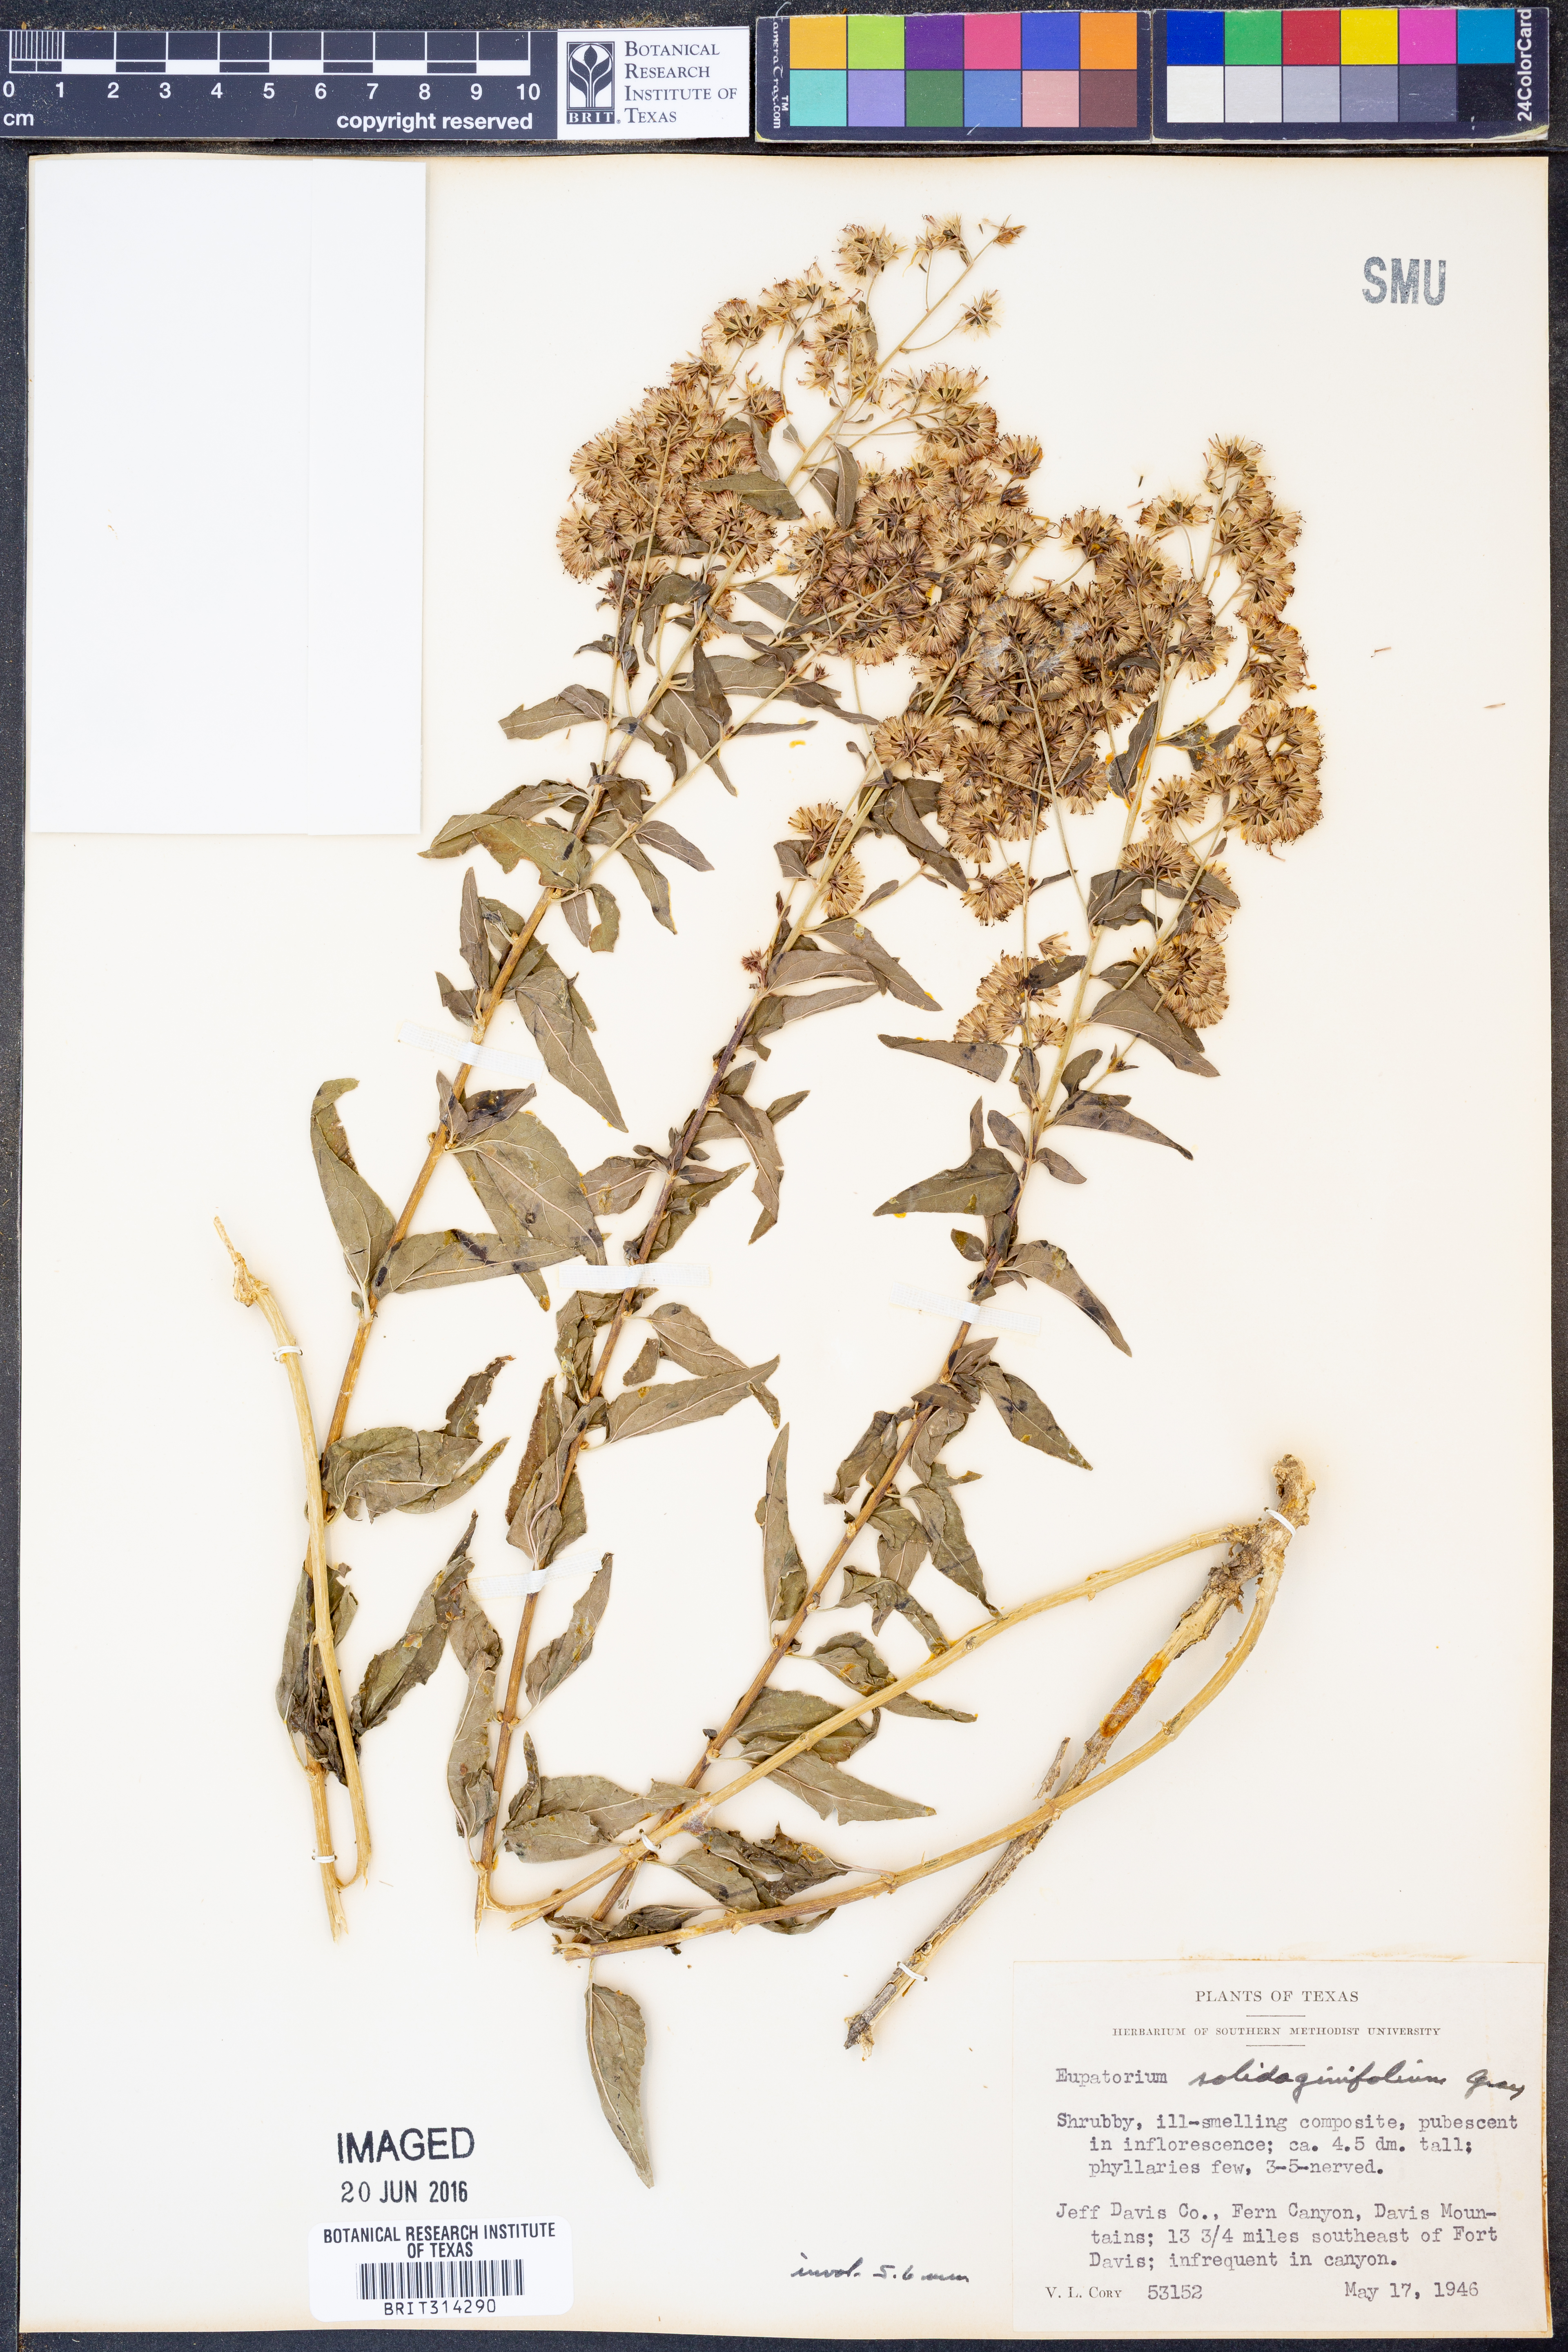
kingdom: Plantae
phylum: Tracheophyta
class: Magnoliopsida
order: Asterales
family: Asteraceae
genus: Koanophyllon
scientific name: Koanophyllon solidaginifolium
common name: Shrubby umbrella thoroughwort
